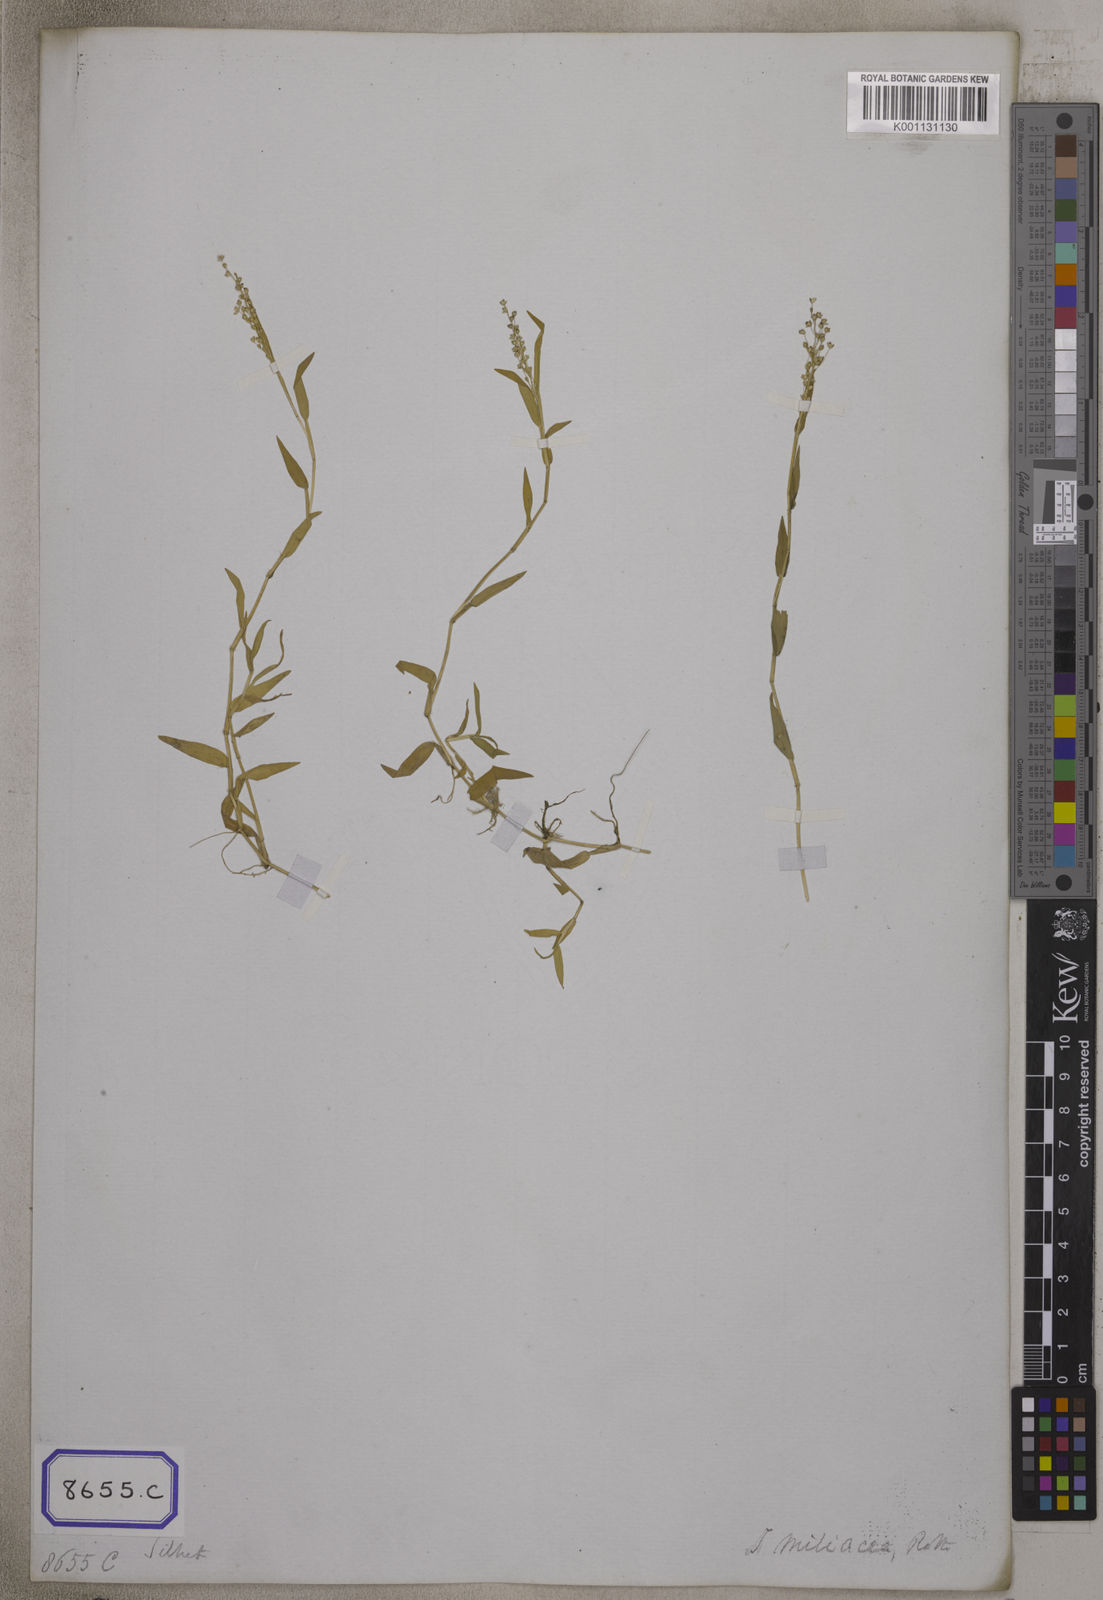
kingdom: Plantae
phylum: Tracheophyta
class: Liliopsida
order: Poales
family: Poaceae
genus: Isachne
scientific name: Isachne
